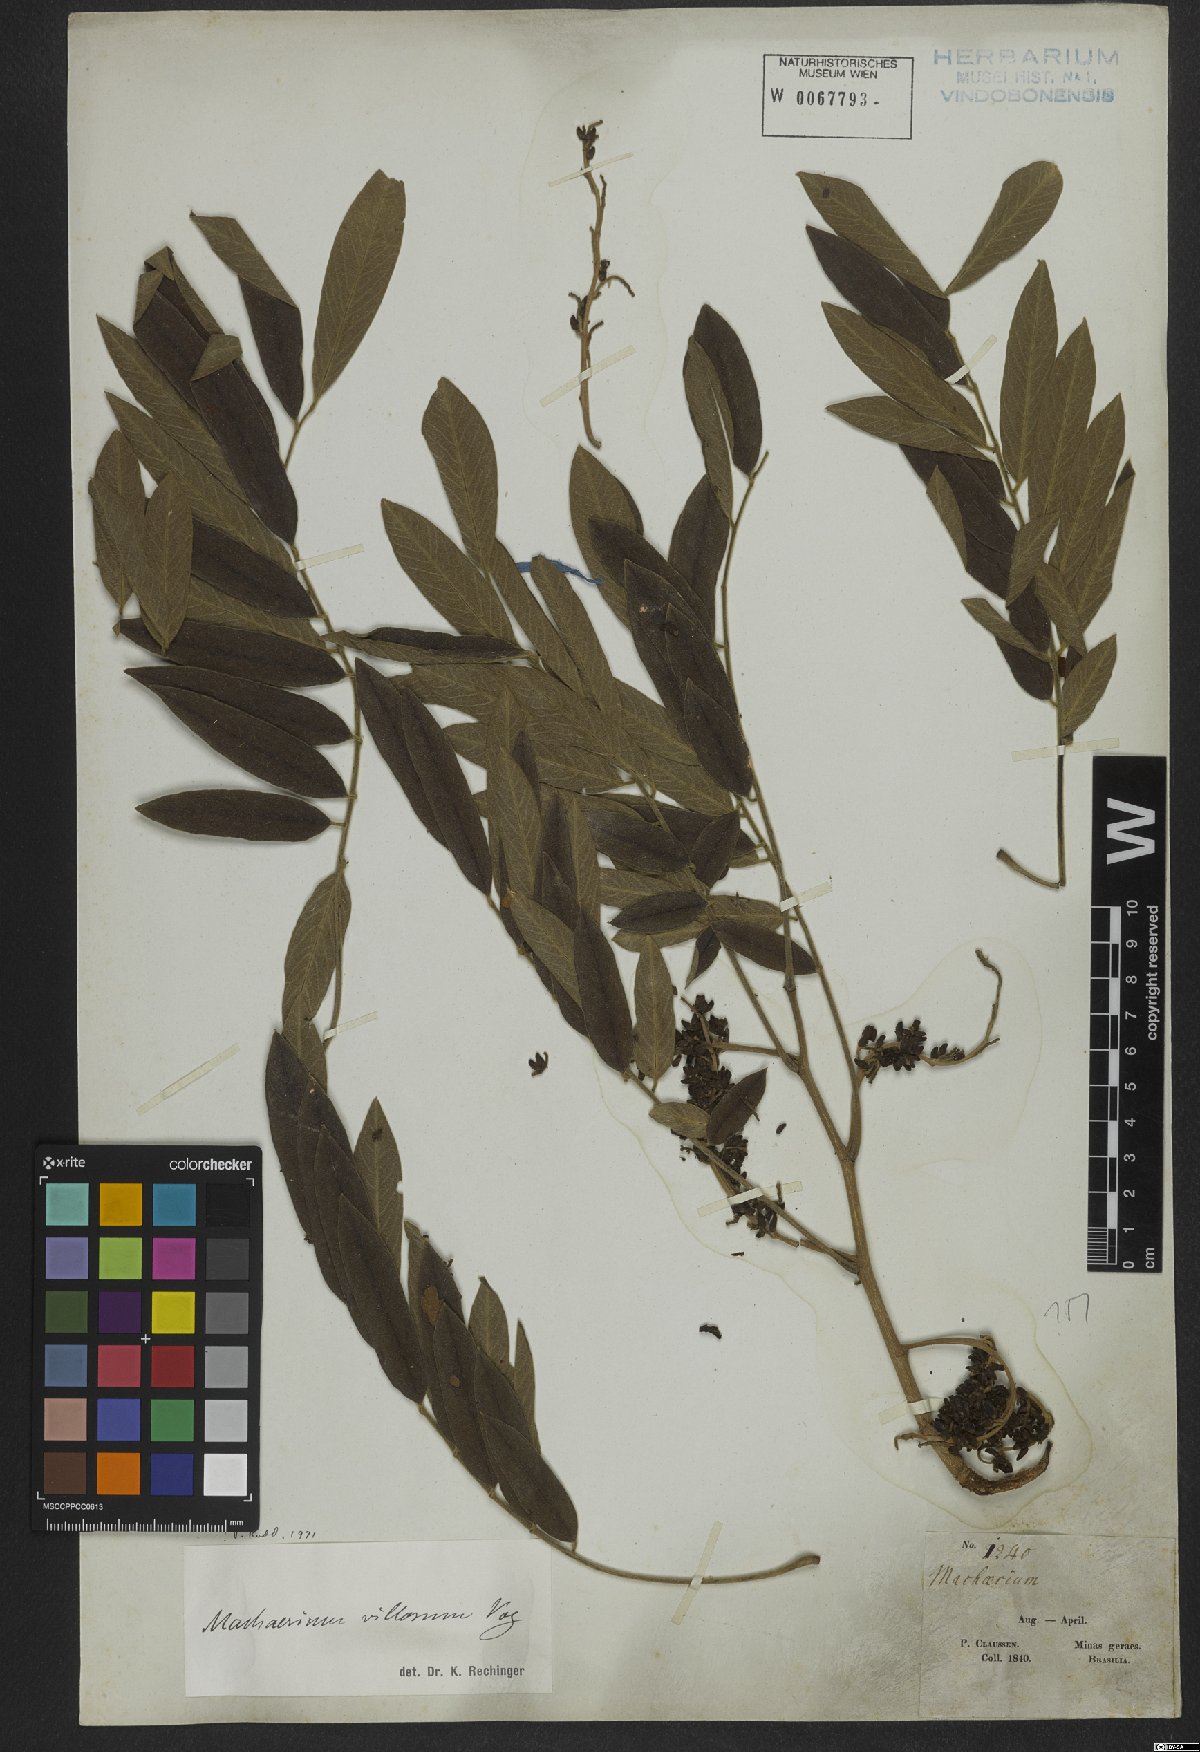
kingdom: Plantae
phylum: Tracheophyta
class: Magnoliopsida
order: Fabales
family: Fabaceae
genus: Machaerium
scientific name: Machaerium villosum
